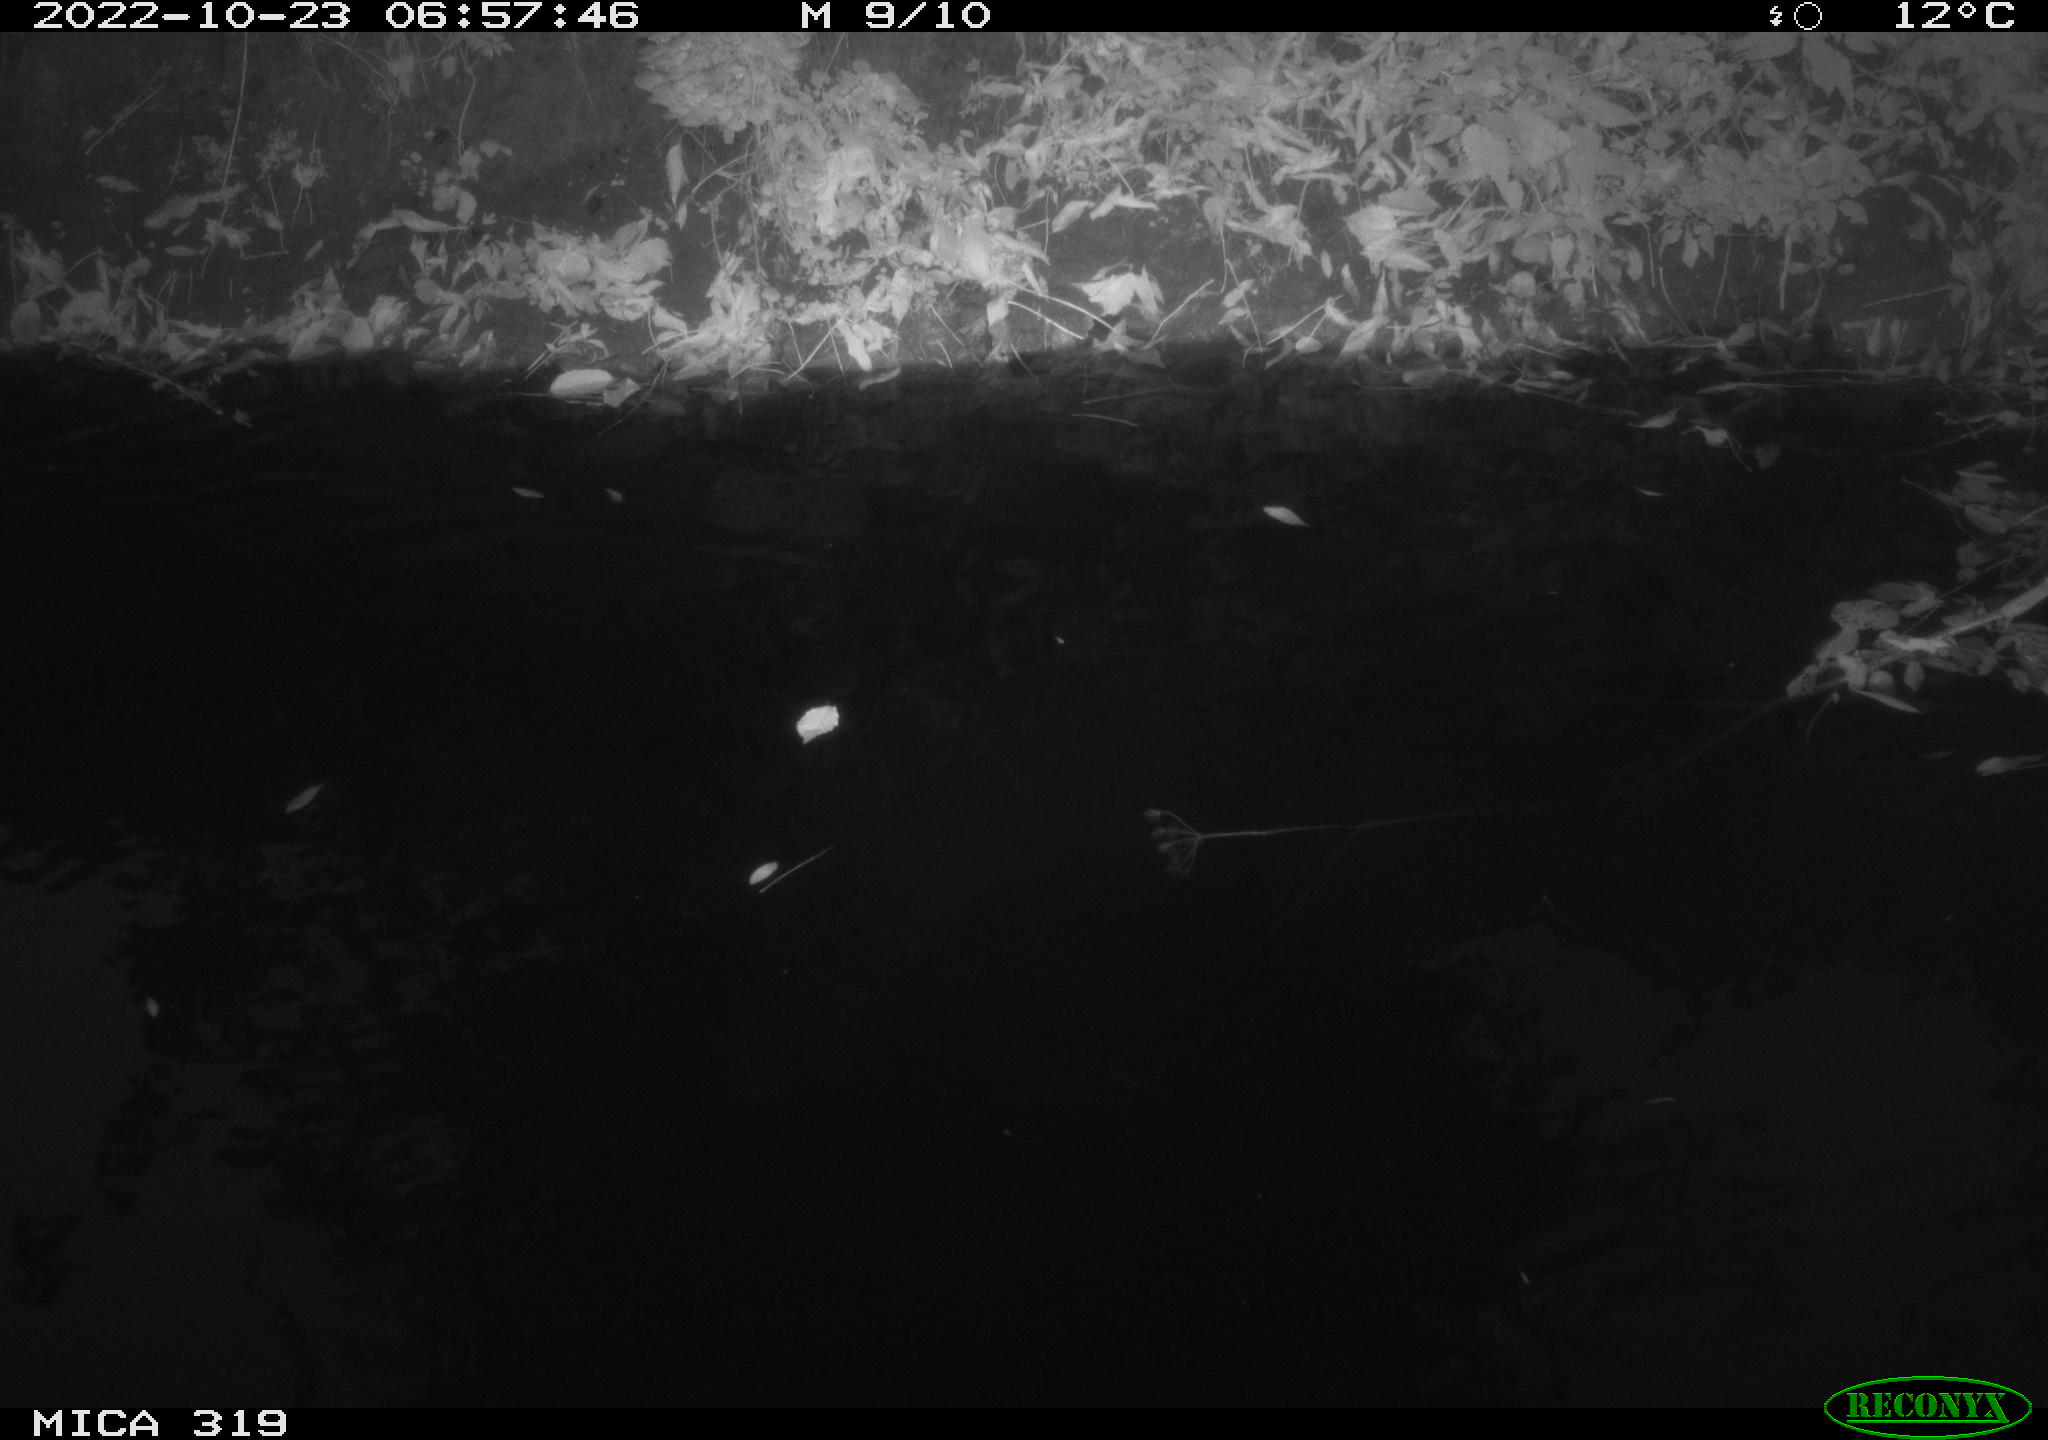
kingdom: Animalia
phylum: Chordata
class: Aves
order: Anseriformes
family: Anatidae
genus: Anas
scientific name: Anas
